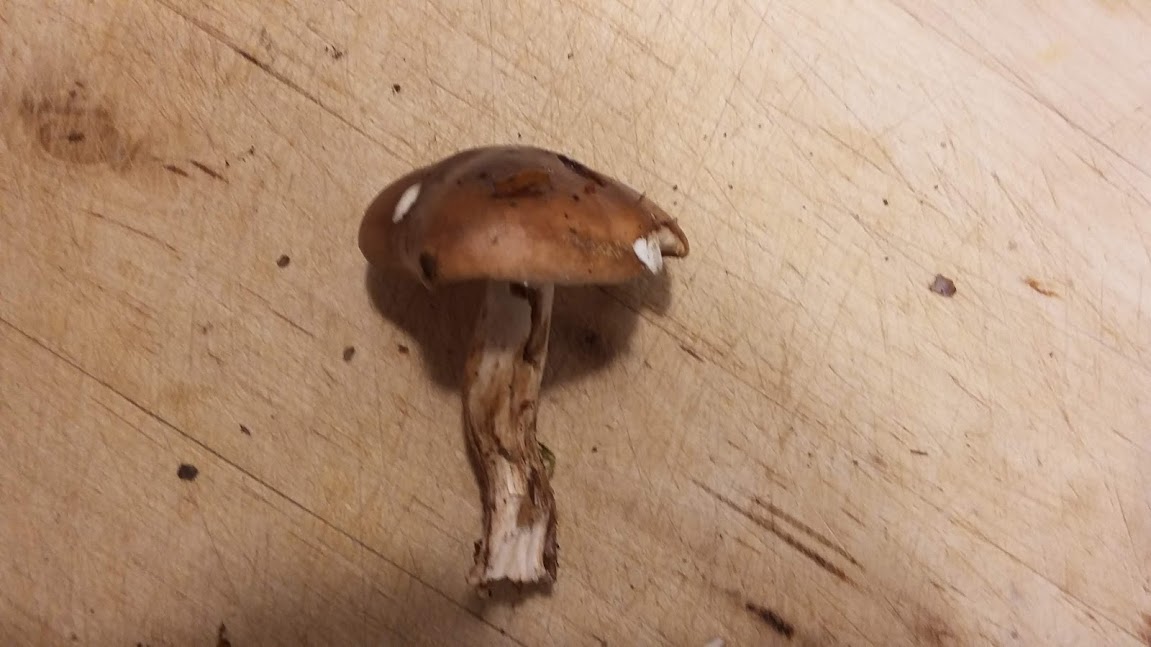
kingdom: Fungi
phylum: Basidiomycota
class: Agaricomycetes
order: Agaricales
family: Tricholomataceae
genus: Tricholoma
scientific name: Tricholoma ustale
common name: sveden ridderhat
